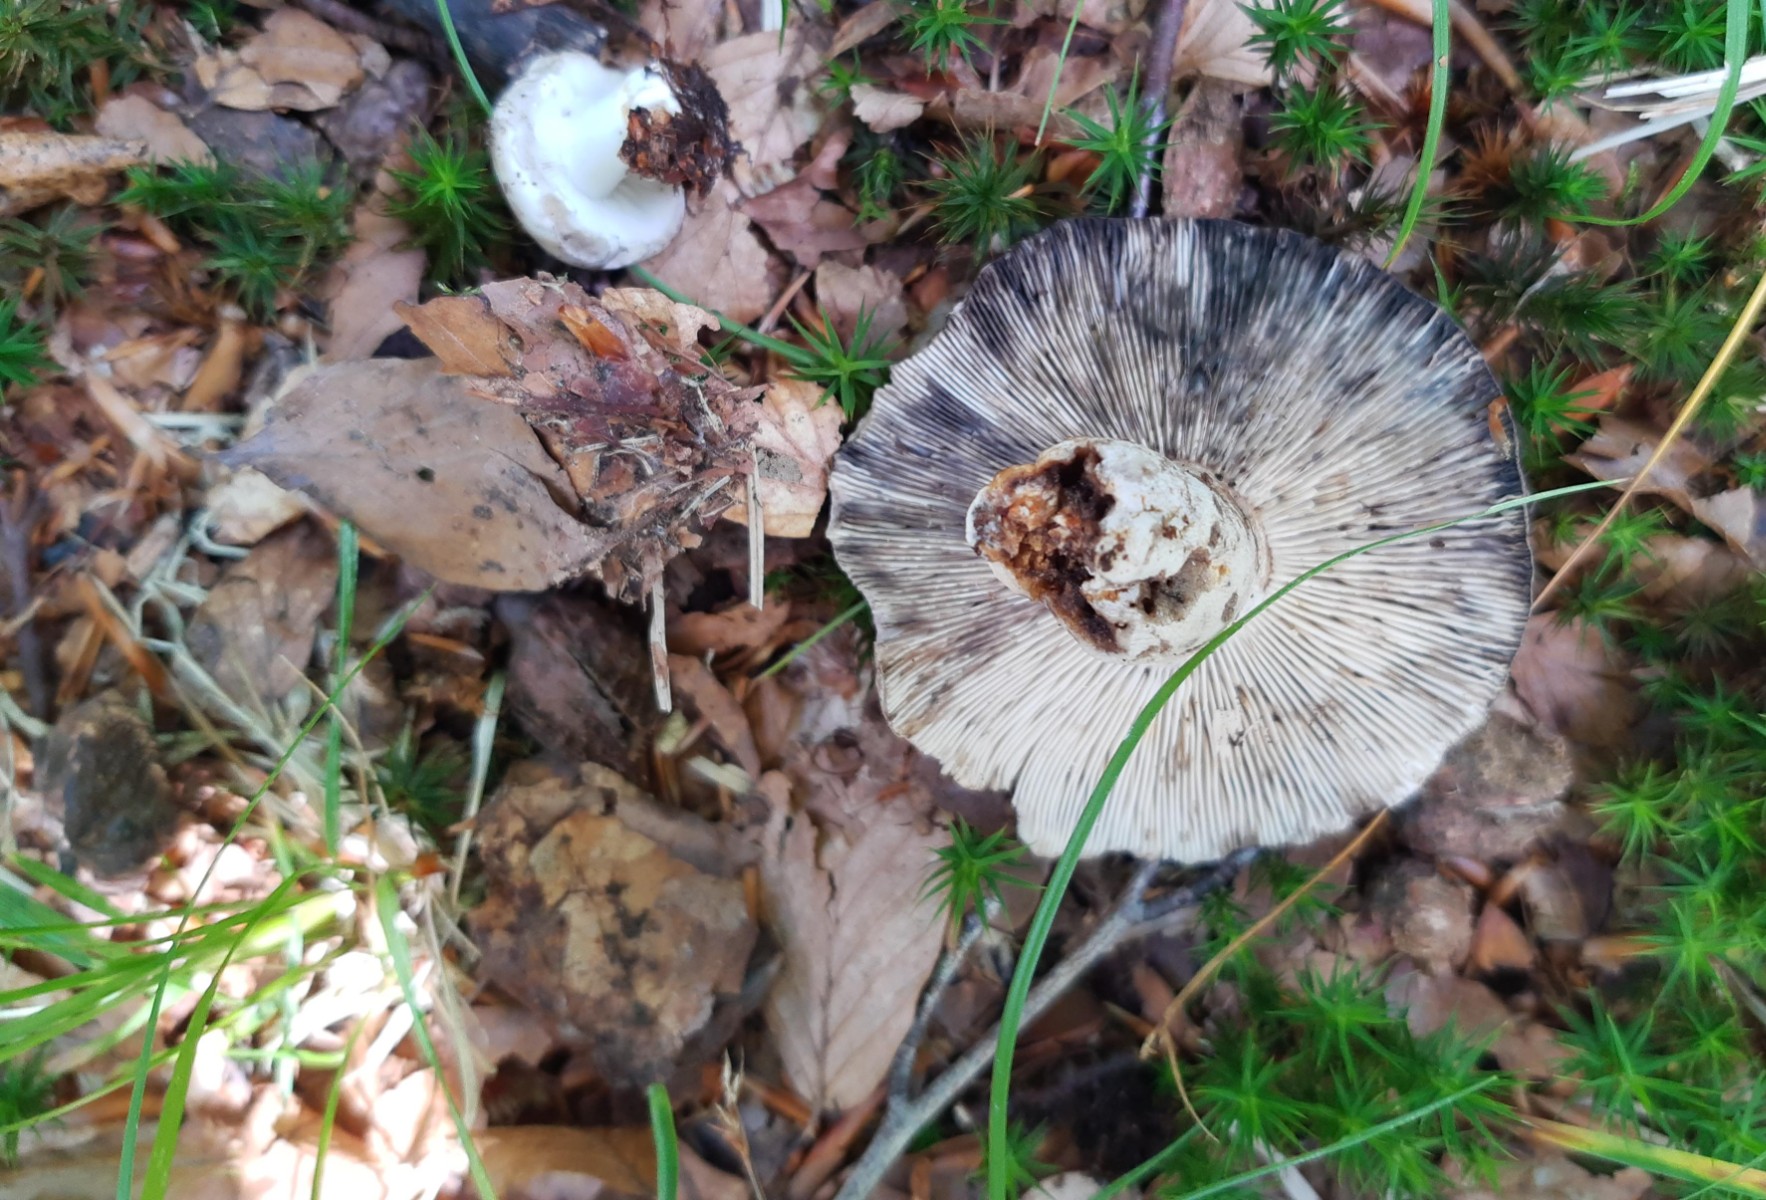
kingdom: Fungi
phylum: Basidiomycota
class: Agaricomycetes
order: Russulales
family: Russulaceae
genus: Russula
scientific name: Russula adusta
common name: sværtende skørhat
